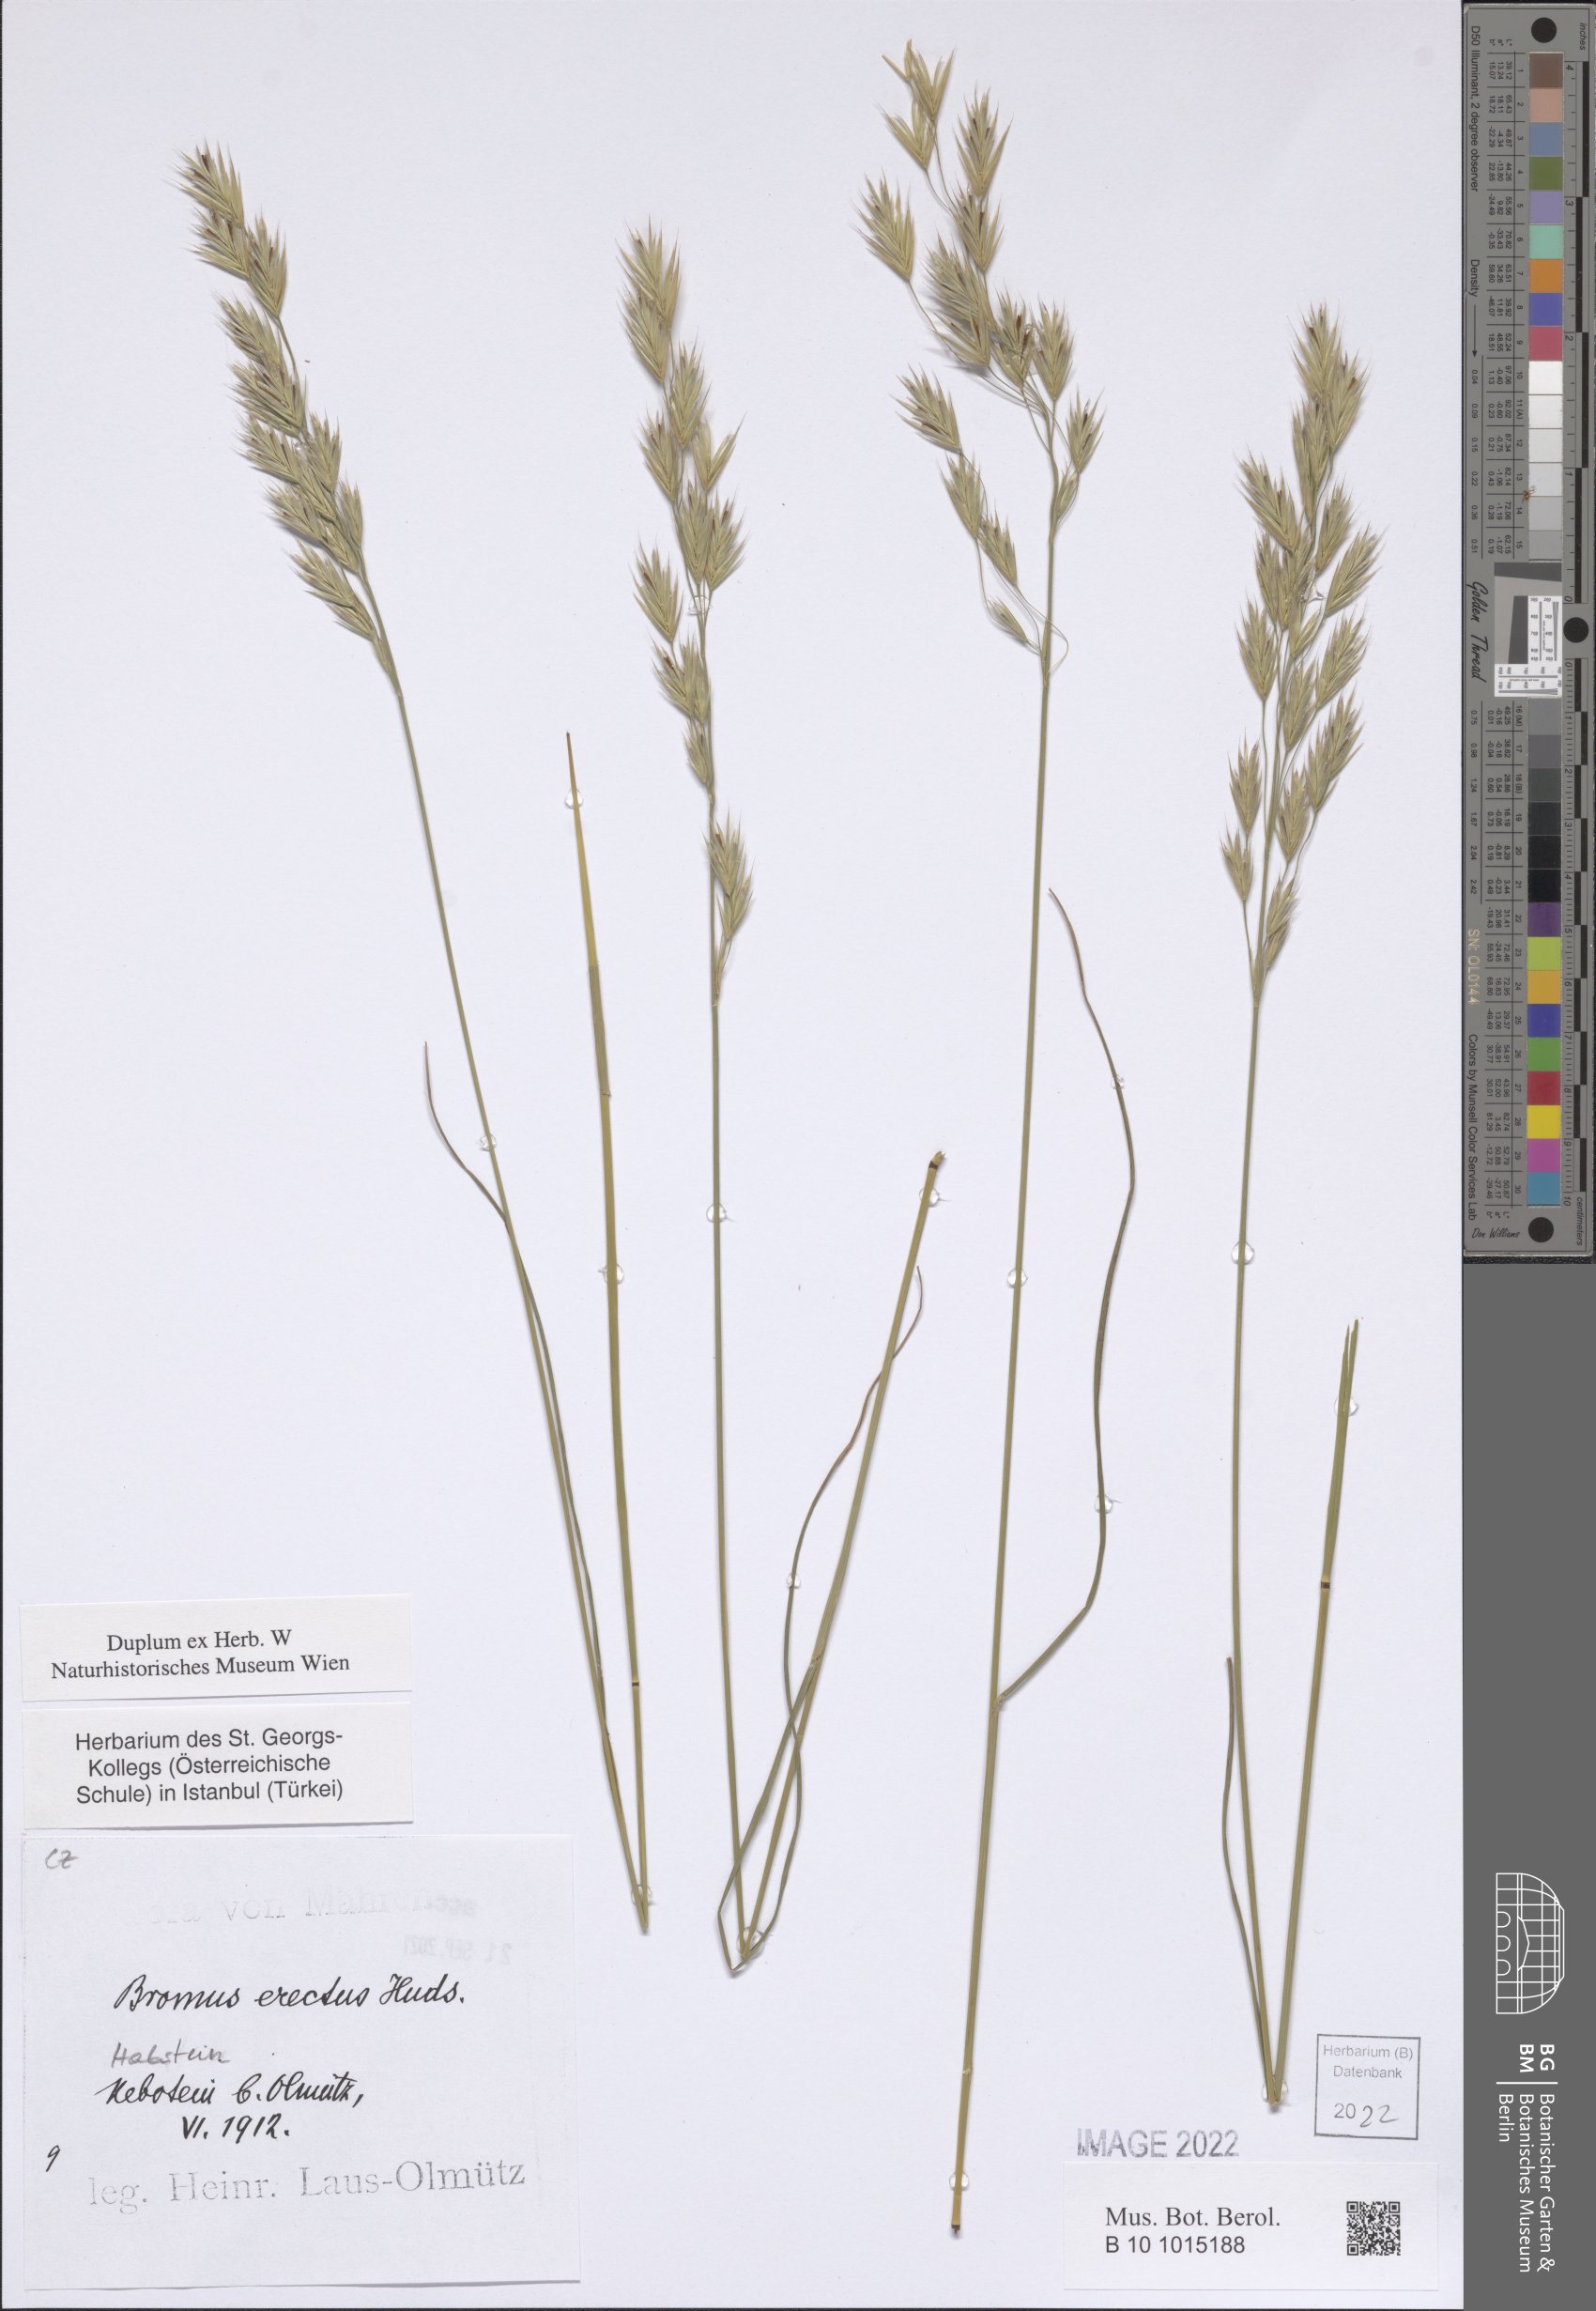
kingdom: Plantae
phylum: Tracheophyta
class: Liliopsida
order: Poales
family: Poaceae
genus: Bromus
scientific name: Bromus erectus
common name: Erect brome
